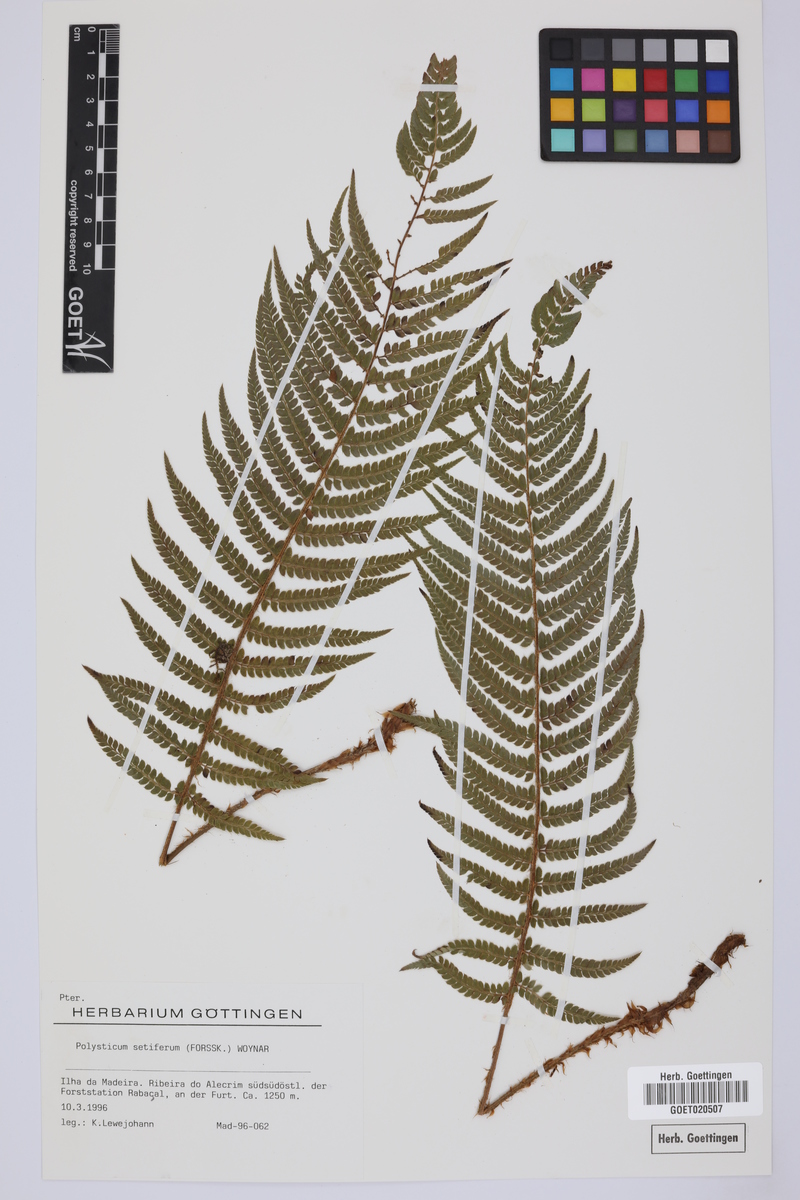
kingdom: Plantae
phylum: Tracheophyta
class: Polypodiopsida
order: Polypodiales
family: Dryopteridaceae
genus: Polystichum
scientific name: Polystichum setiferum
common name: Soft shield-fern
